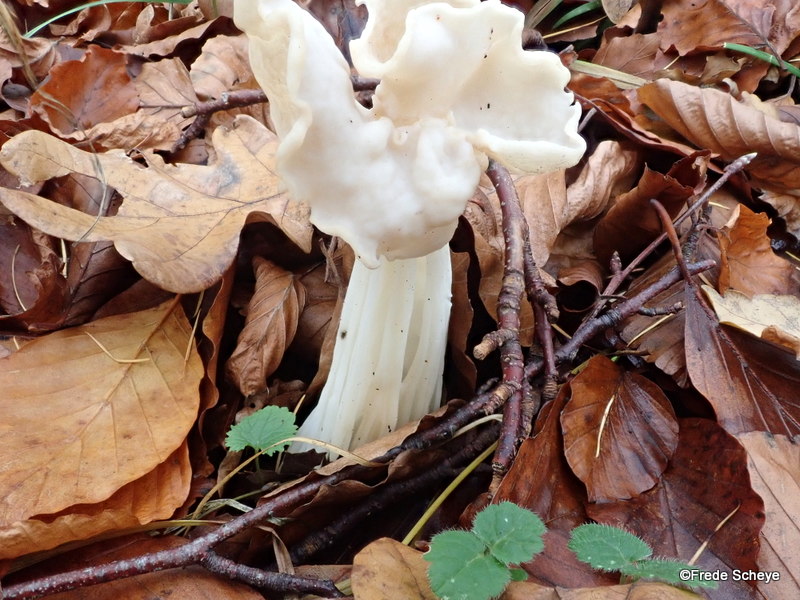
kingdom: Fungi
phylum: Ascomycota
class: Pezizomycetes
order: Pezizales
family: Helvellaceae
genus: Helvella
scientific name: Helvella crispa
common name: kruset foldhat
